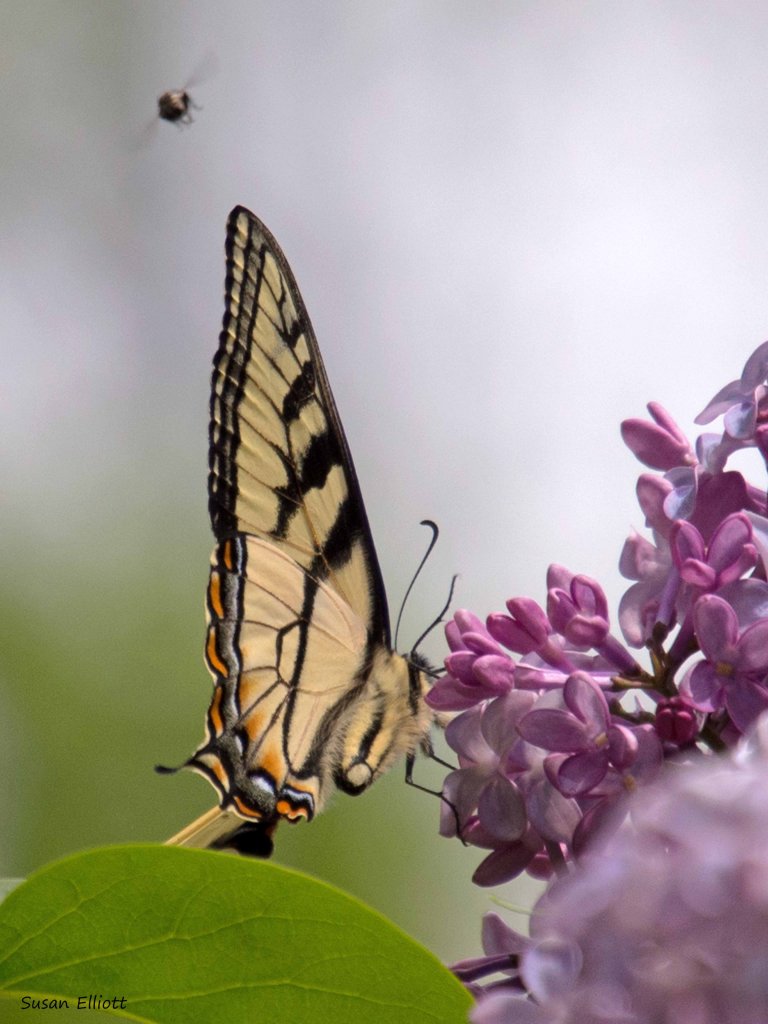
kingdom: Animalia
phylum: Arthropoda
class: Insecta
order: Lepidoptera
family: Papilionidae
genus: Pterourus
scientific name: Pterourus canadensis
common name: Canadian Tiger Swallowtail
